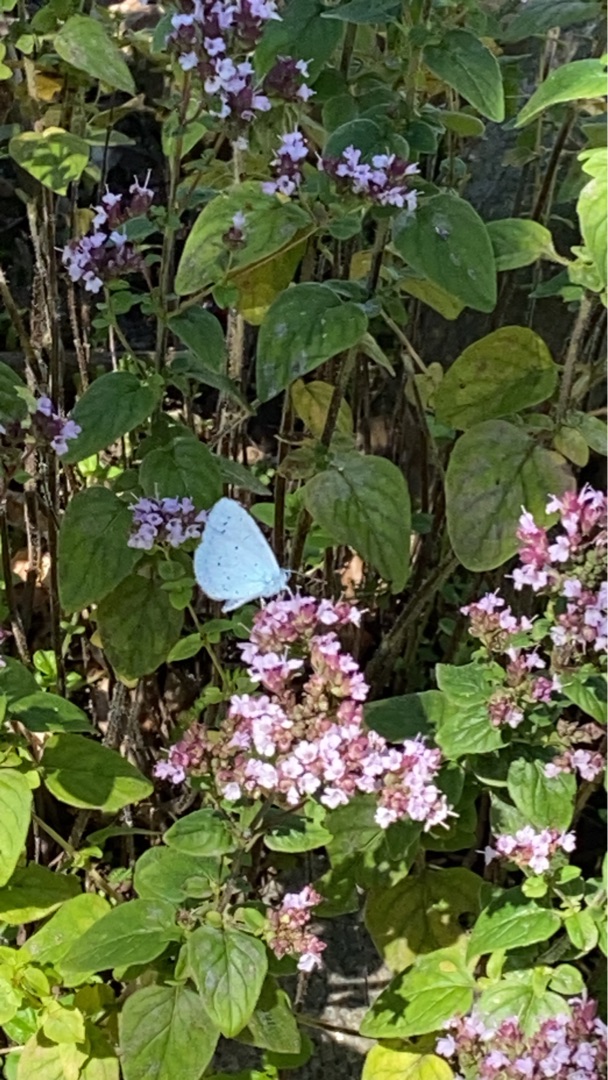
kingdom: Animalia
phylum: Arthropoda
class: Insecta
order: Lepidoptera
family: Lycaenidae
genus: Celastrina
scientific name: Celastrina argiolus
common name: Skovblåfugl
